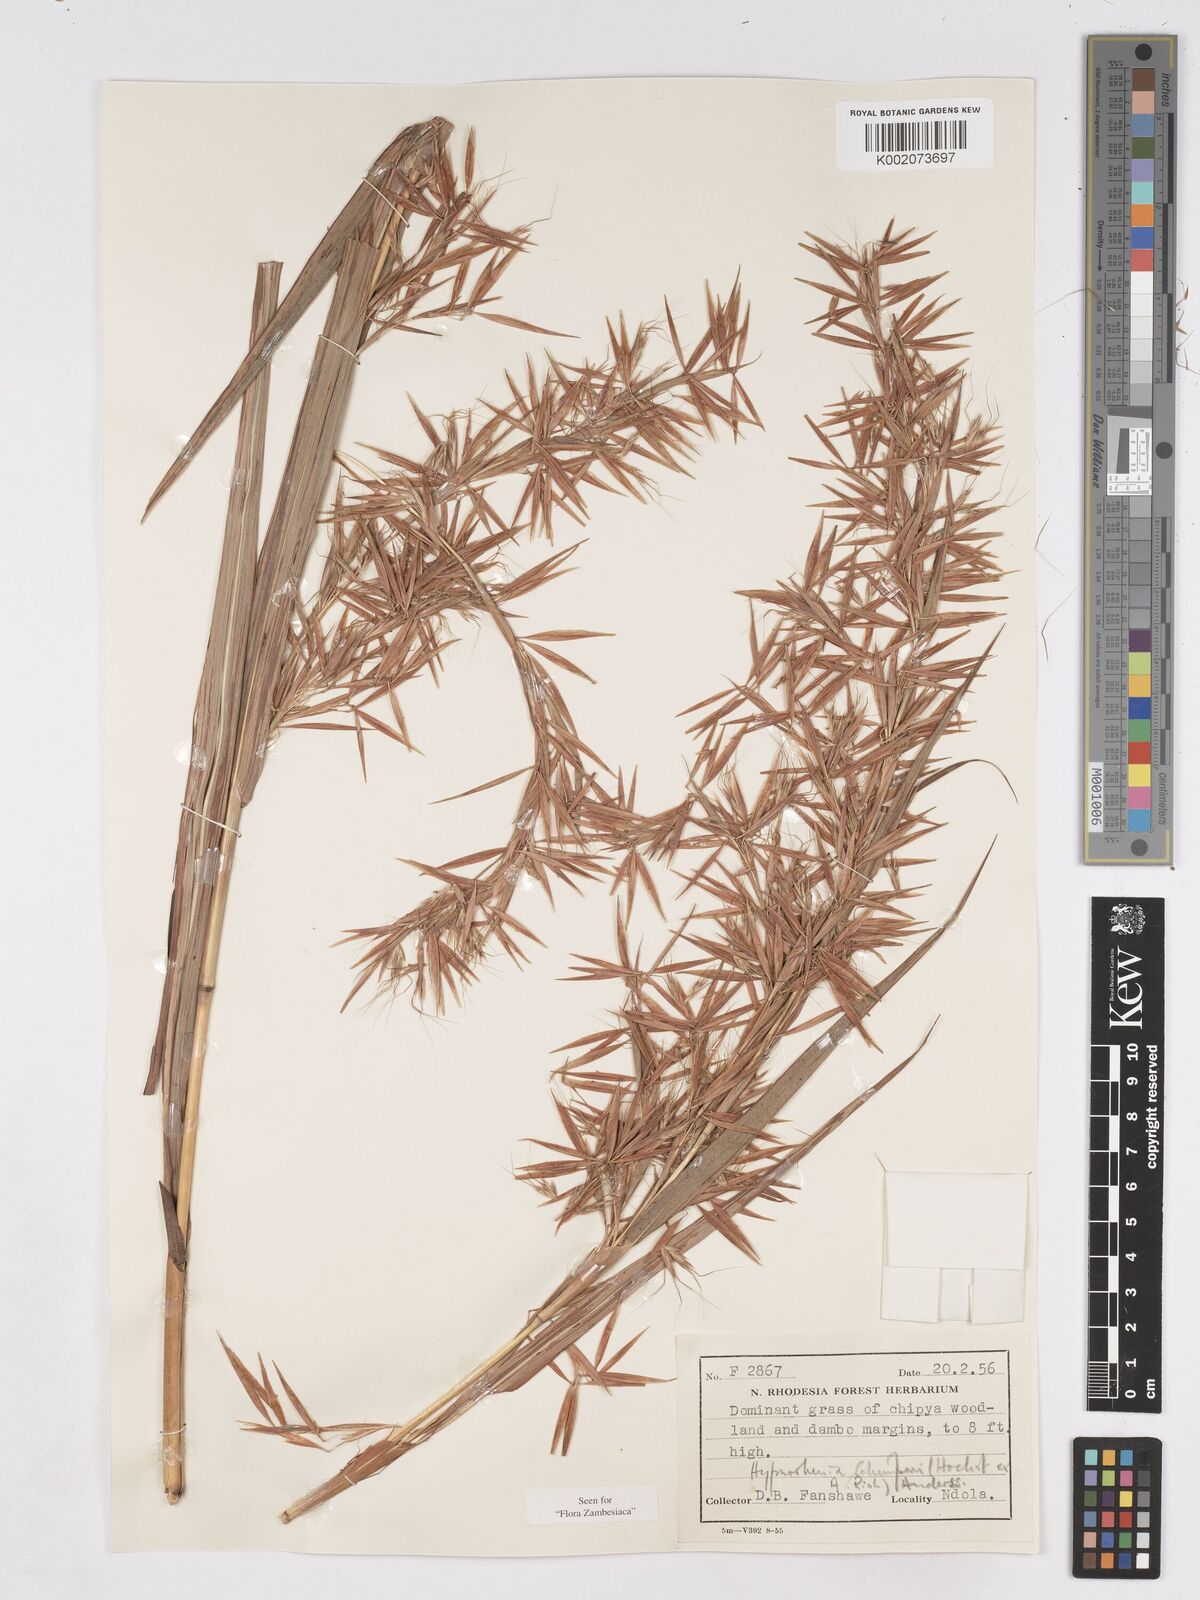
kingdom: Plantae
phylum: Tracheophyta
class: Liliopsida
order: Poales
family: Poaceae
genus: Hyparrhenia
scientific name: Hyparrhenia schimperi
